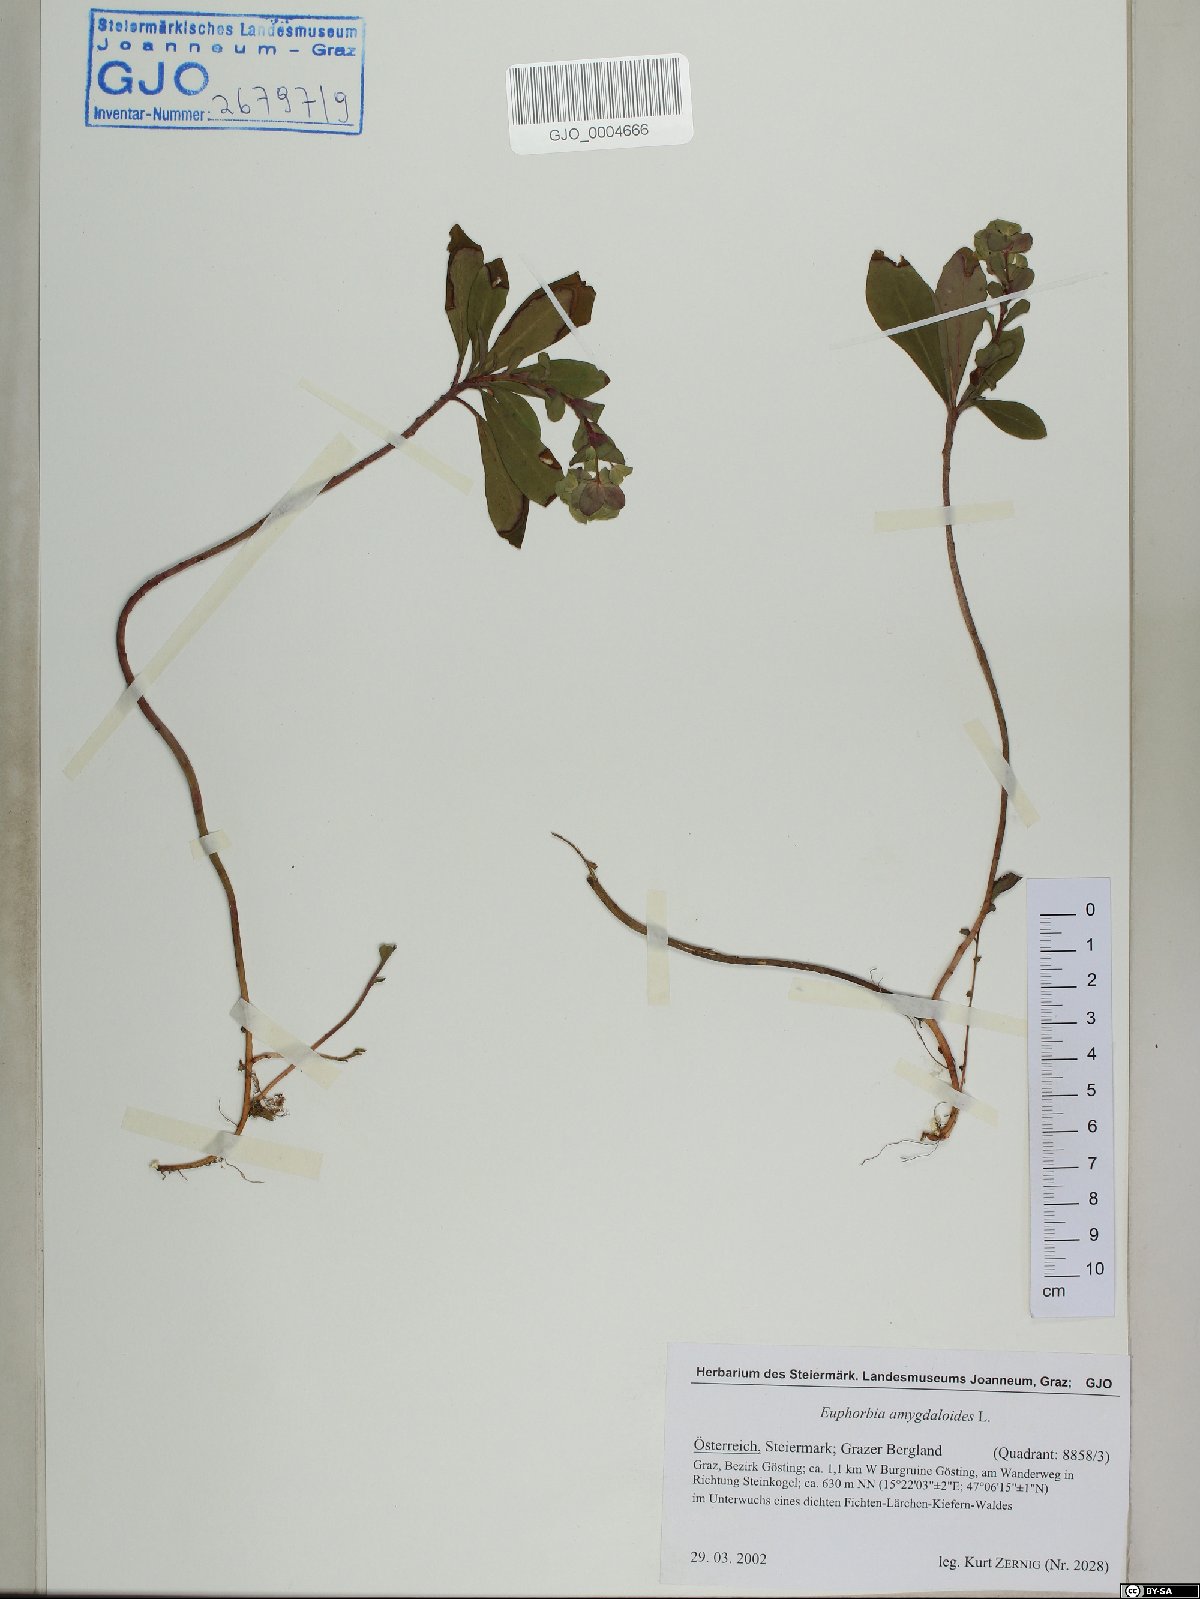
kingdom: Plantae
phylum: Tracheophyta
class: Magnoliopsida
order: Malpighiales
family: Euphorbiaceae
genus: Euphorbia
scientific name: Euphorbia amygdaloides
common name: Wood spurge
